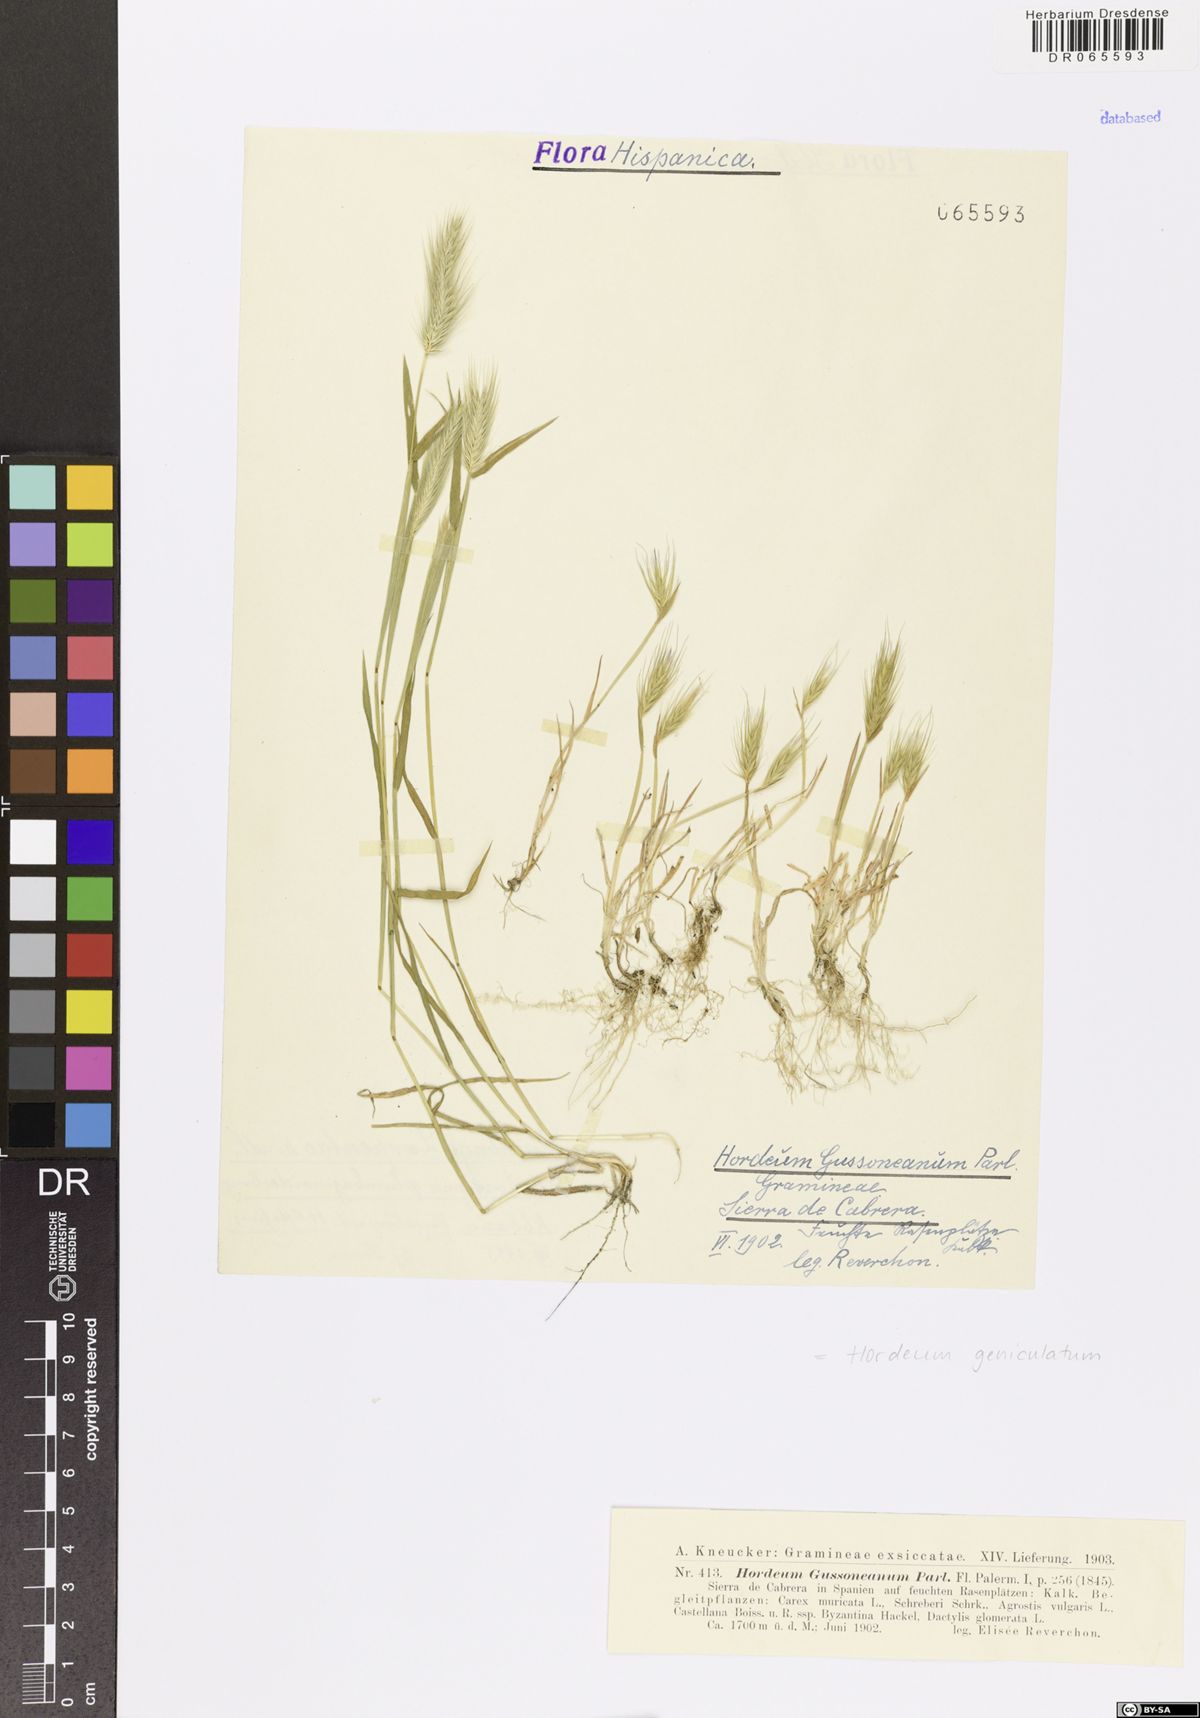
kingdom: Plantae
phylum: Tracheophyta
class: Liliopsida
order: Poales
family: Poaceae
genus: Hordeum
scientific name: Hordeum marinum
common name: Sea barley
